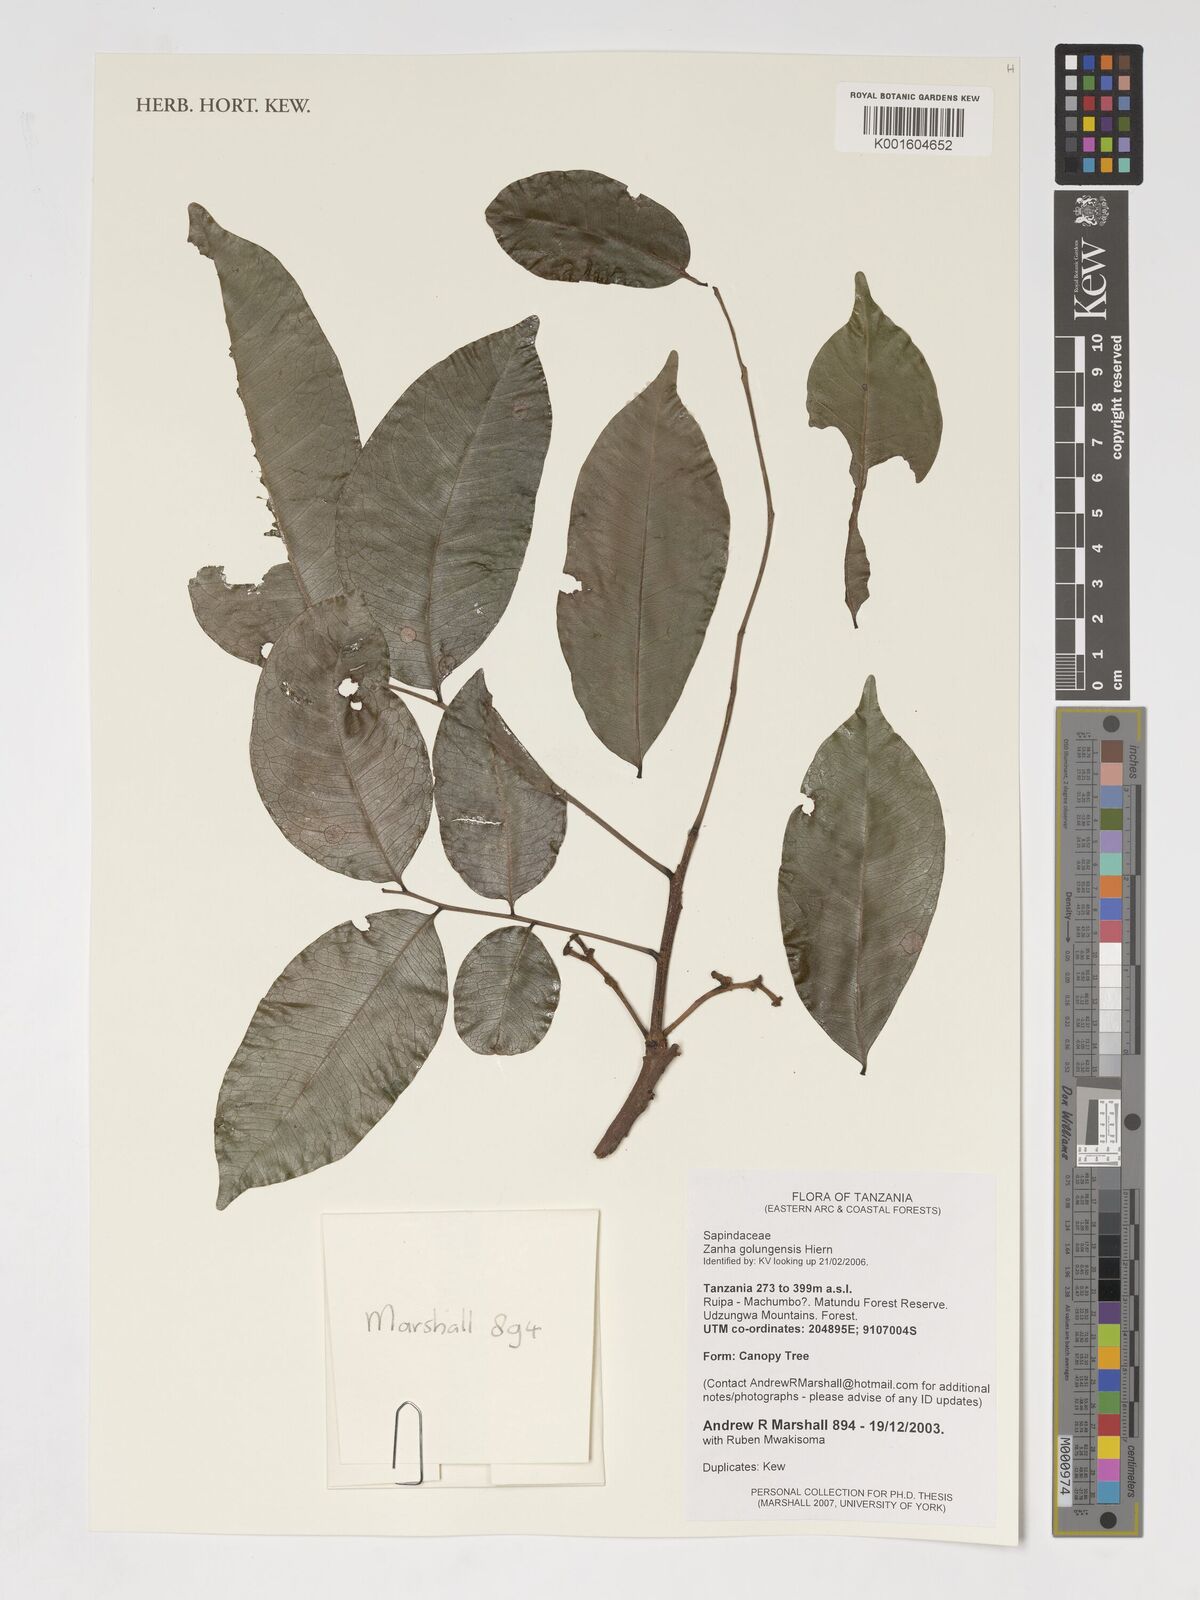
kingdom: Plantae
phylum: Tracheophyta
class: Magnoliopsida
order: Sapindales
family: Sapindaceae
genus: Zanha
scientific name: Zanha golungensis
